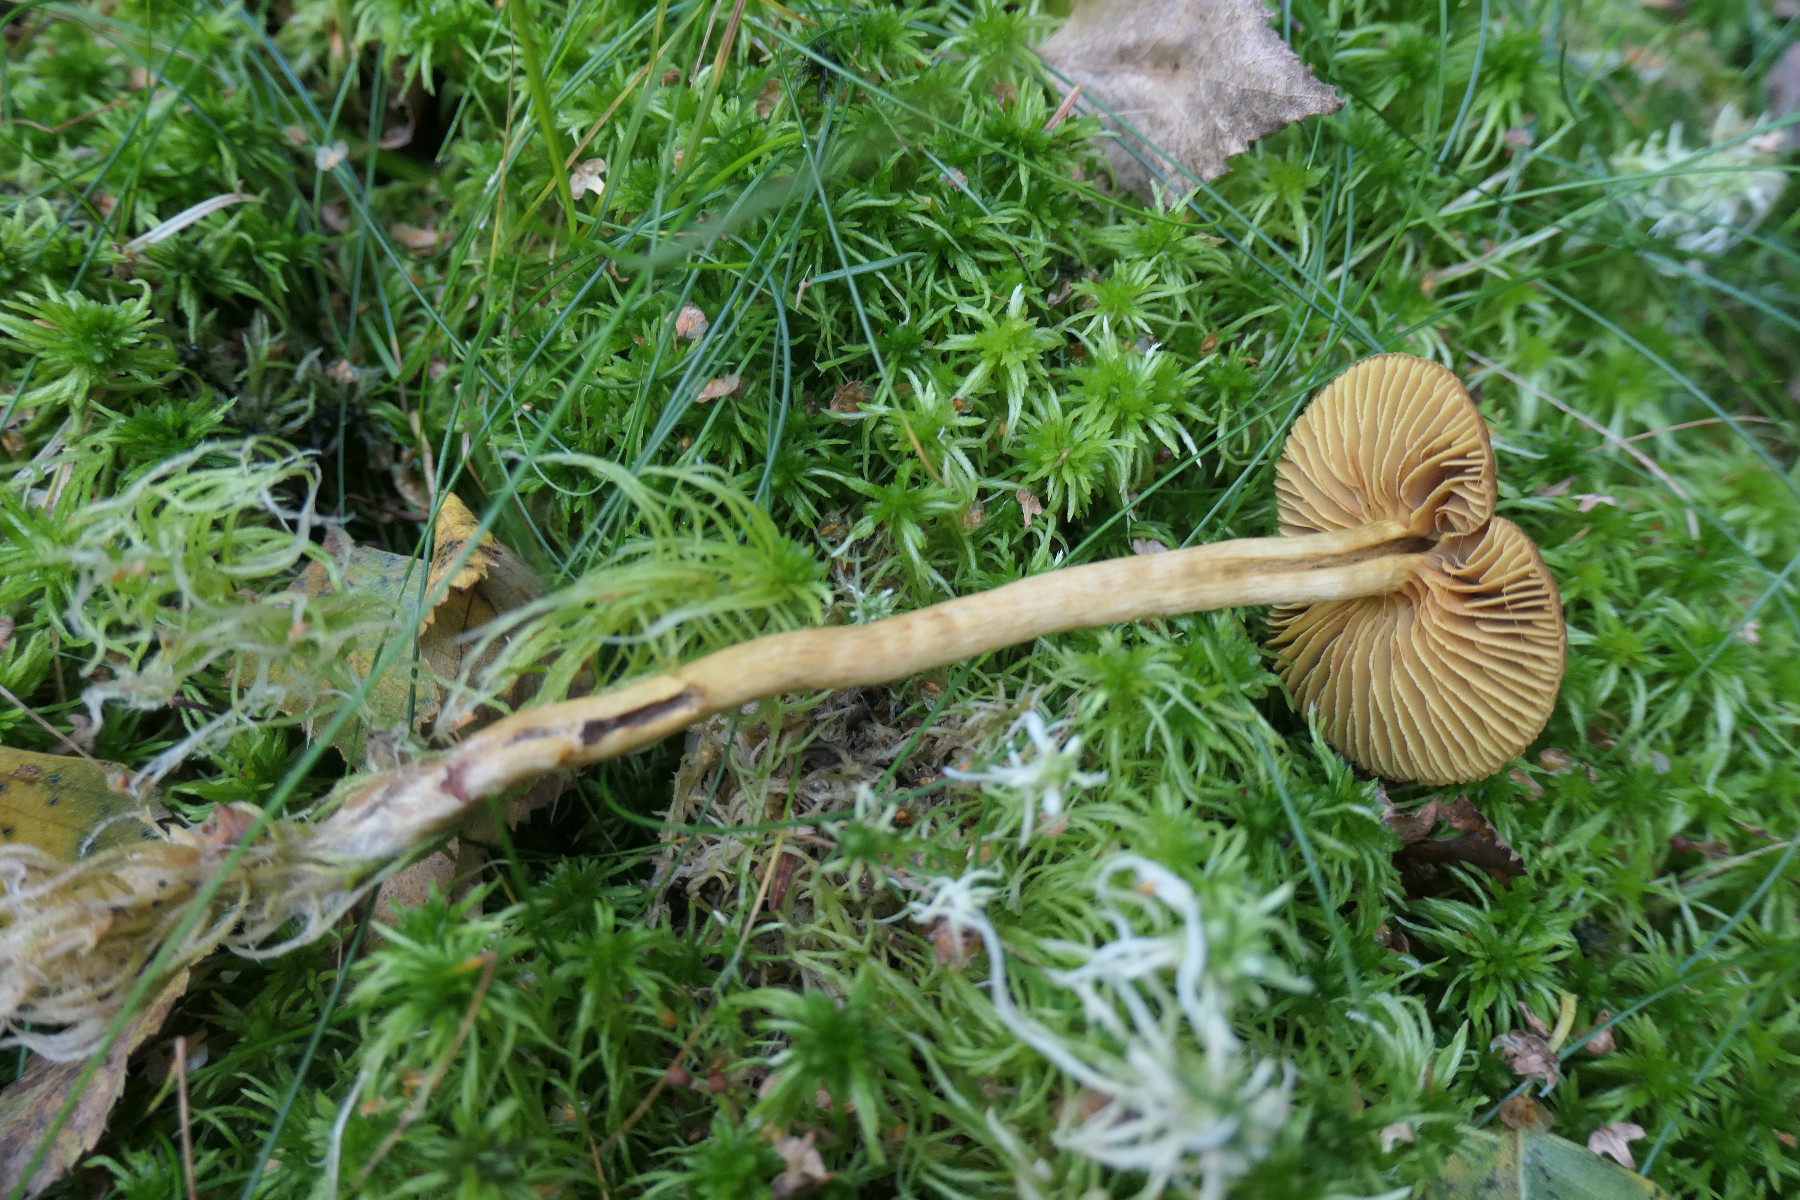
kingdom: Fungi
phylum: Basidiomycota
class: Agaricomycetes
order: Agaricales
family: Cortinariaceae
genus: Cortinarius
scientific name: Cortinarius subfusipes
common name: højmose-slørhat
